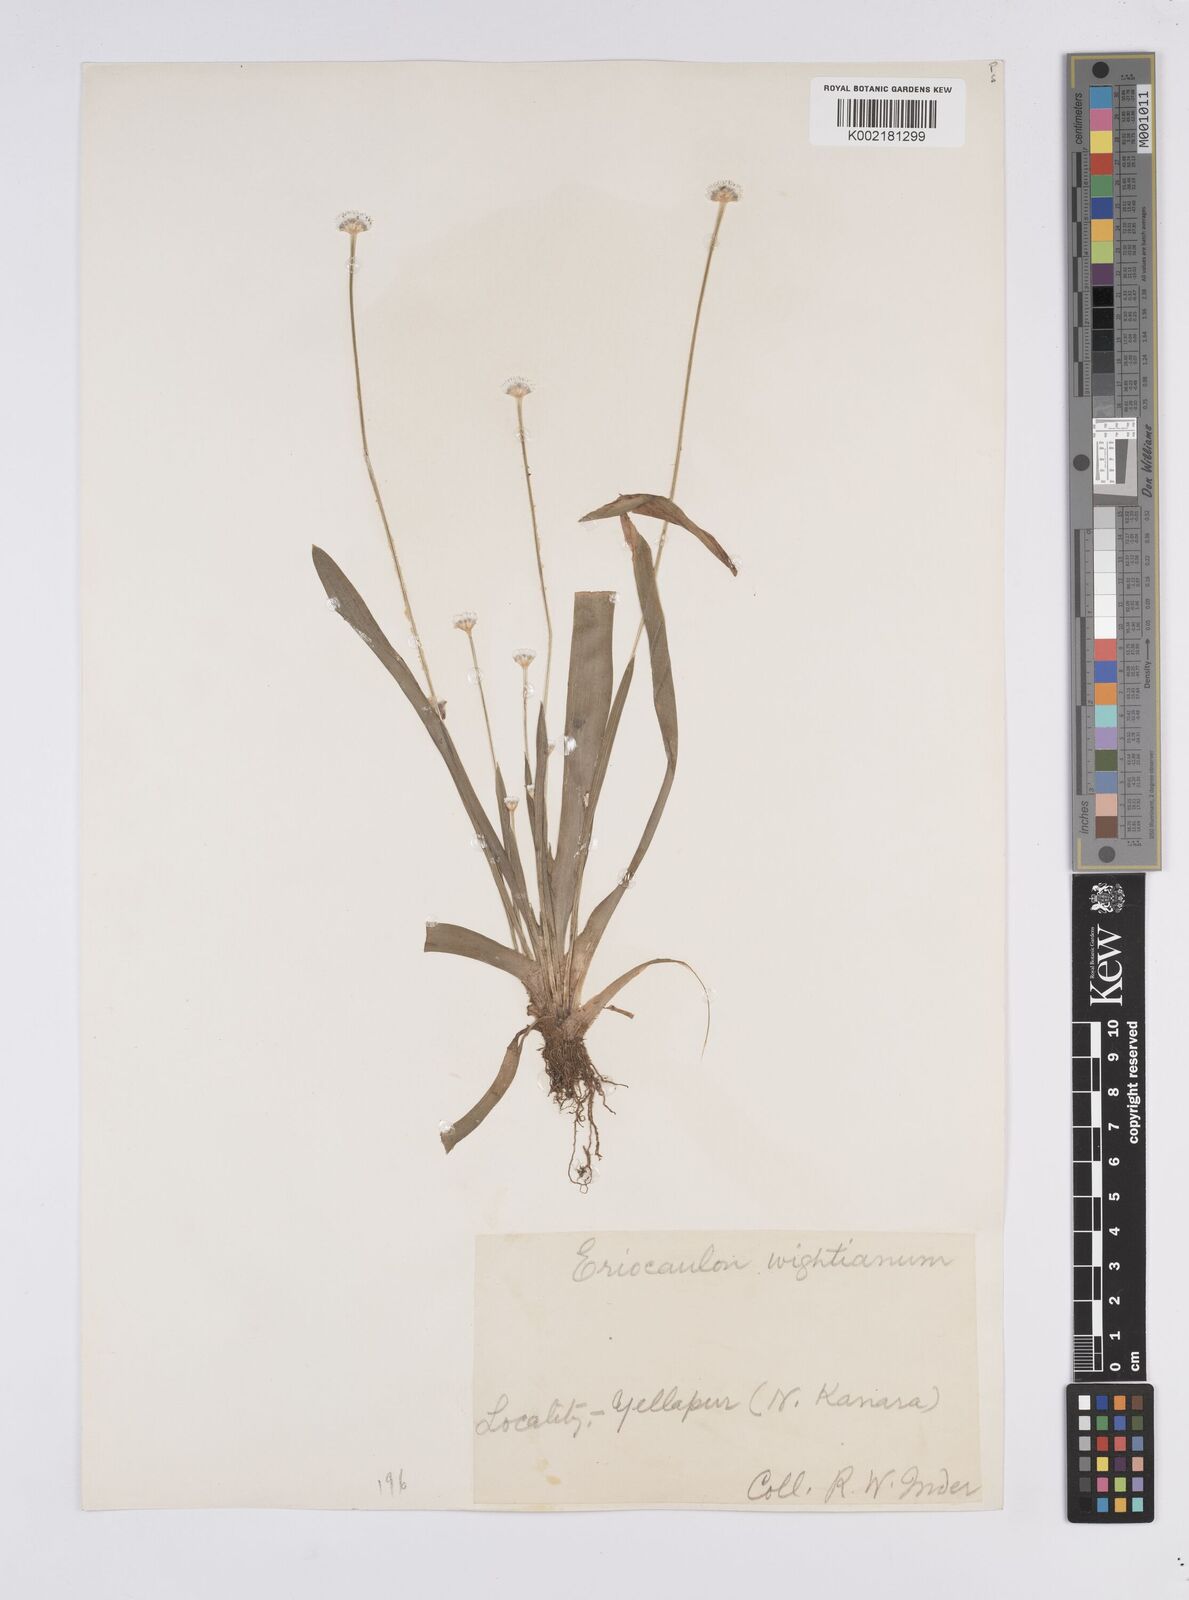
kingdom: Plantae
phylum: Tracheophyta
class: Liliopsida
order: Poales
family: Eriocaulaceae
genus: Eriocaulon
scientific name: Eriocaulon robustobrownianum
